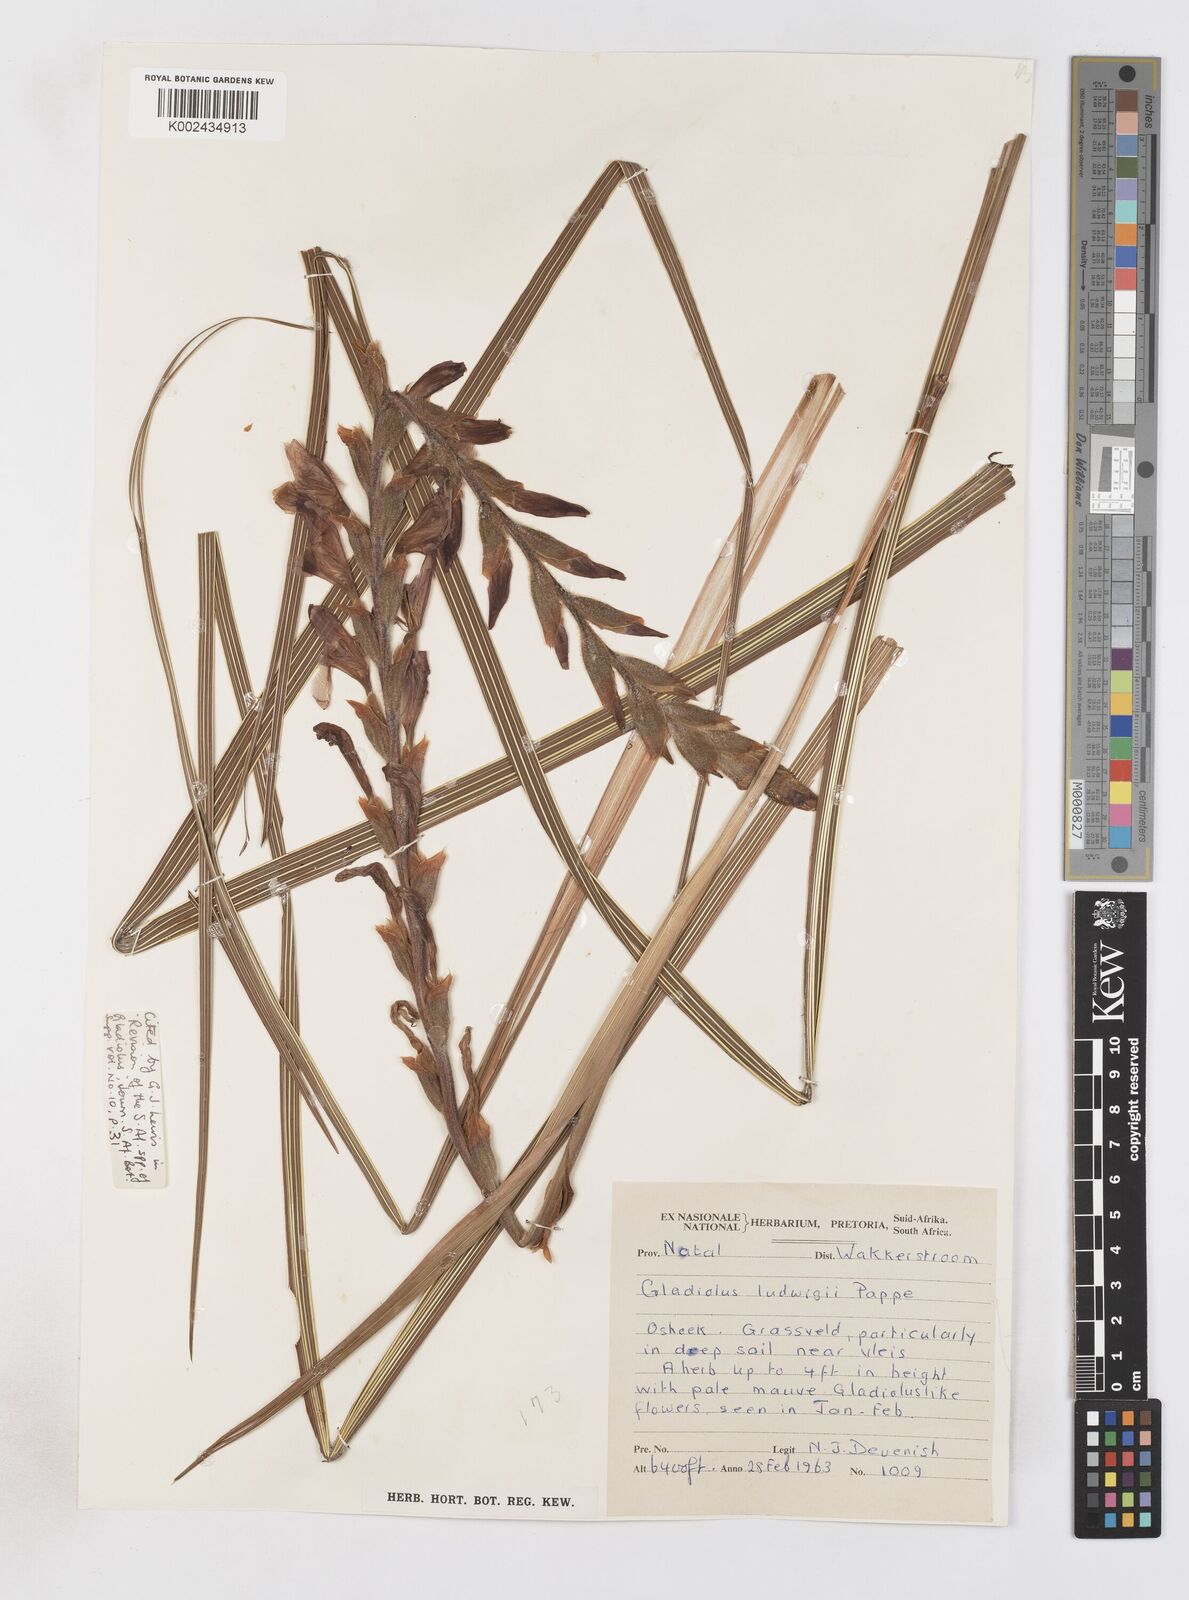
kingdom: Plantae
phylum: Tracheophyta
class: Liliopsida
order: Asparagales
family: Iridaceae
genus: Gladiolus
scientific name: Gladiolus sericeovillosus
